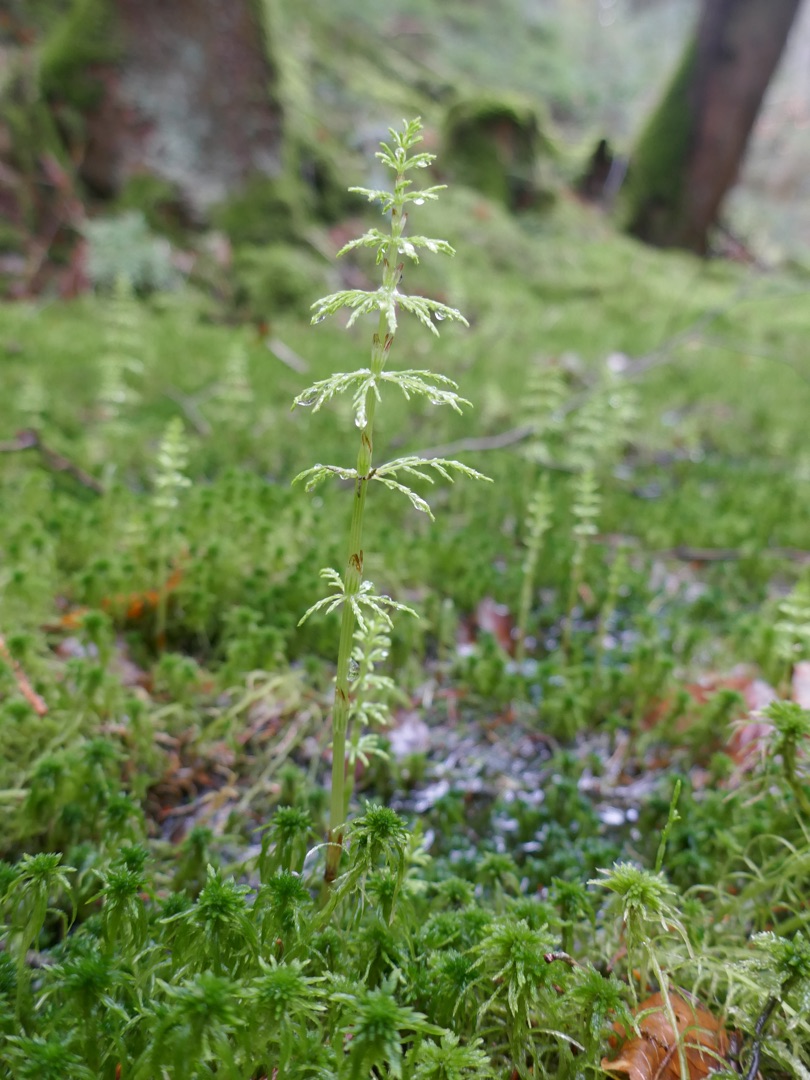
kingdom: Plantae
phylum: Tracheophyta
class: Polypodiopsida
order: Equisetales
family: Equisetaceae
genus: Equisetum
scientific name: Equisetum sylvaticum
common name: Skov-padderok
